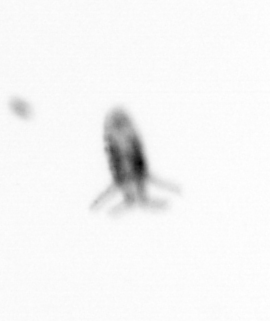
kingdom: Animalia
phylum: Arthropoda
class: Copepoda
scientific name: Copepoda
